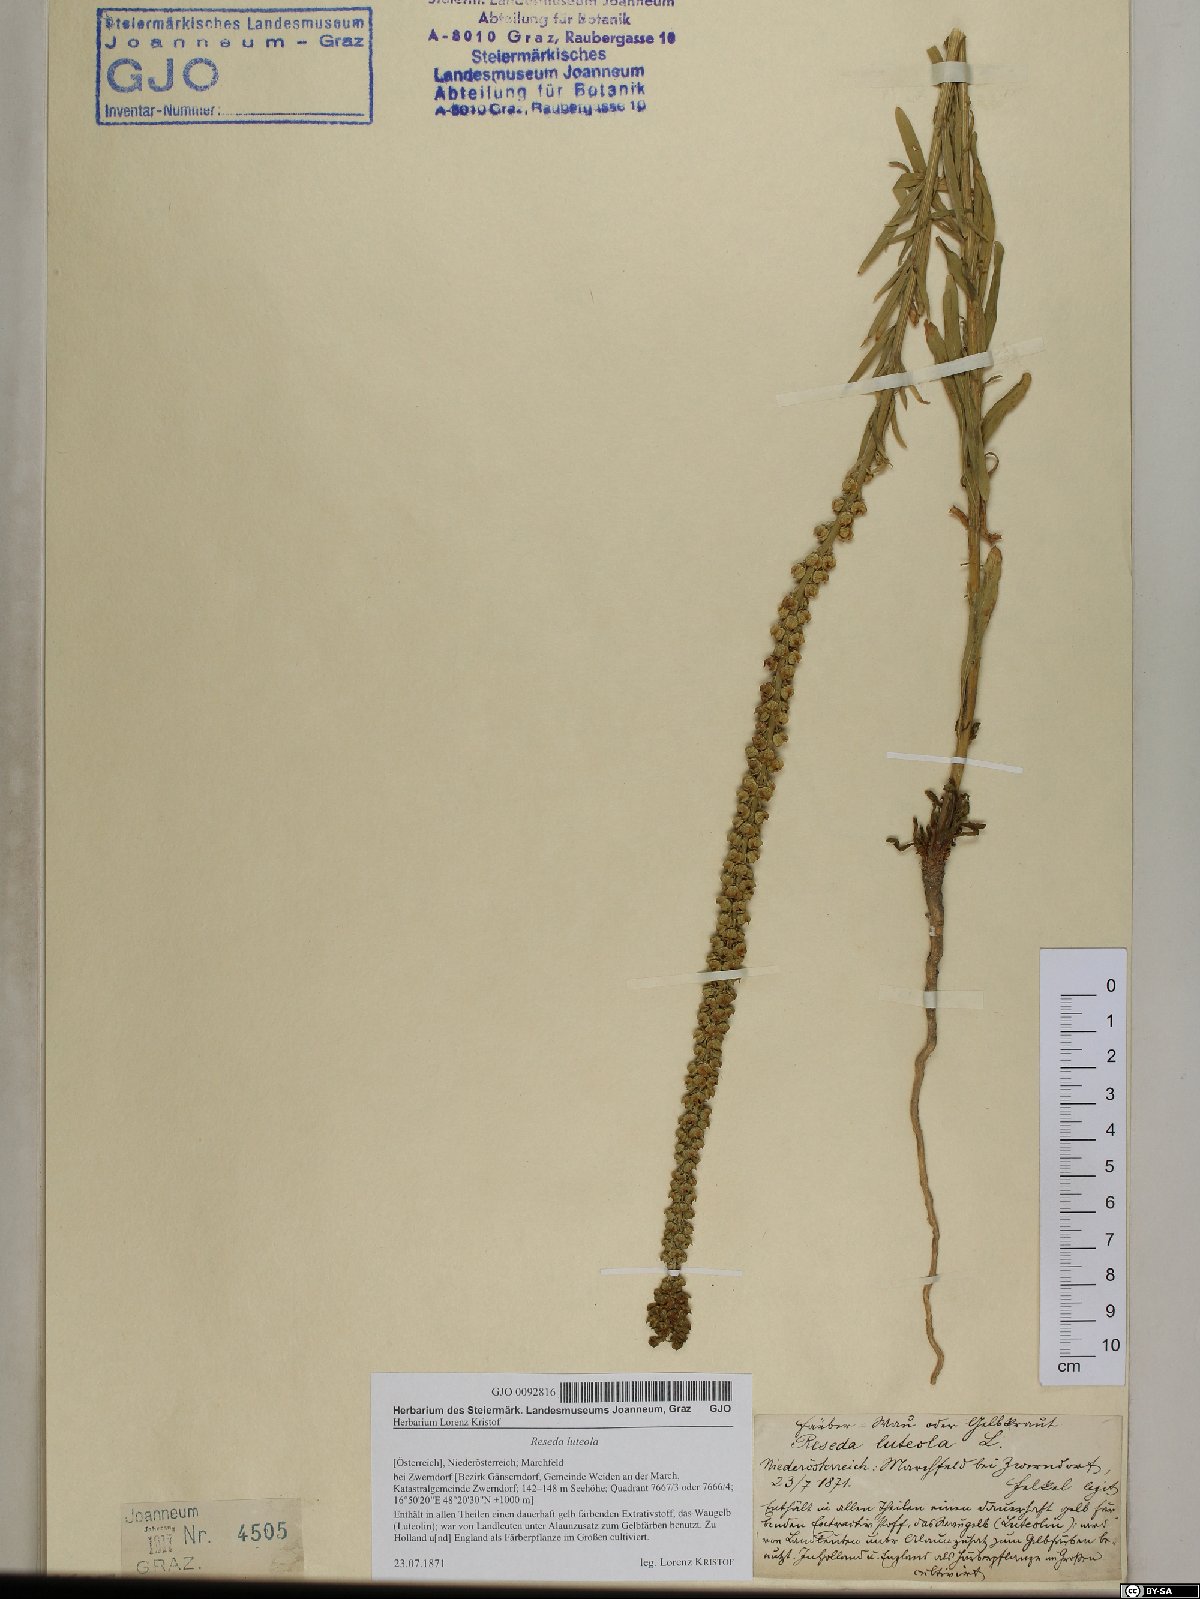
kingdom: Plantae
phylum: Tracheophyta
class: Magnoliopsida
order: Brassicales
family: Resedaceae
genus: Reseda
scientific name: Reseda luteola
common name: Weld
